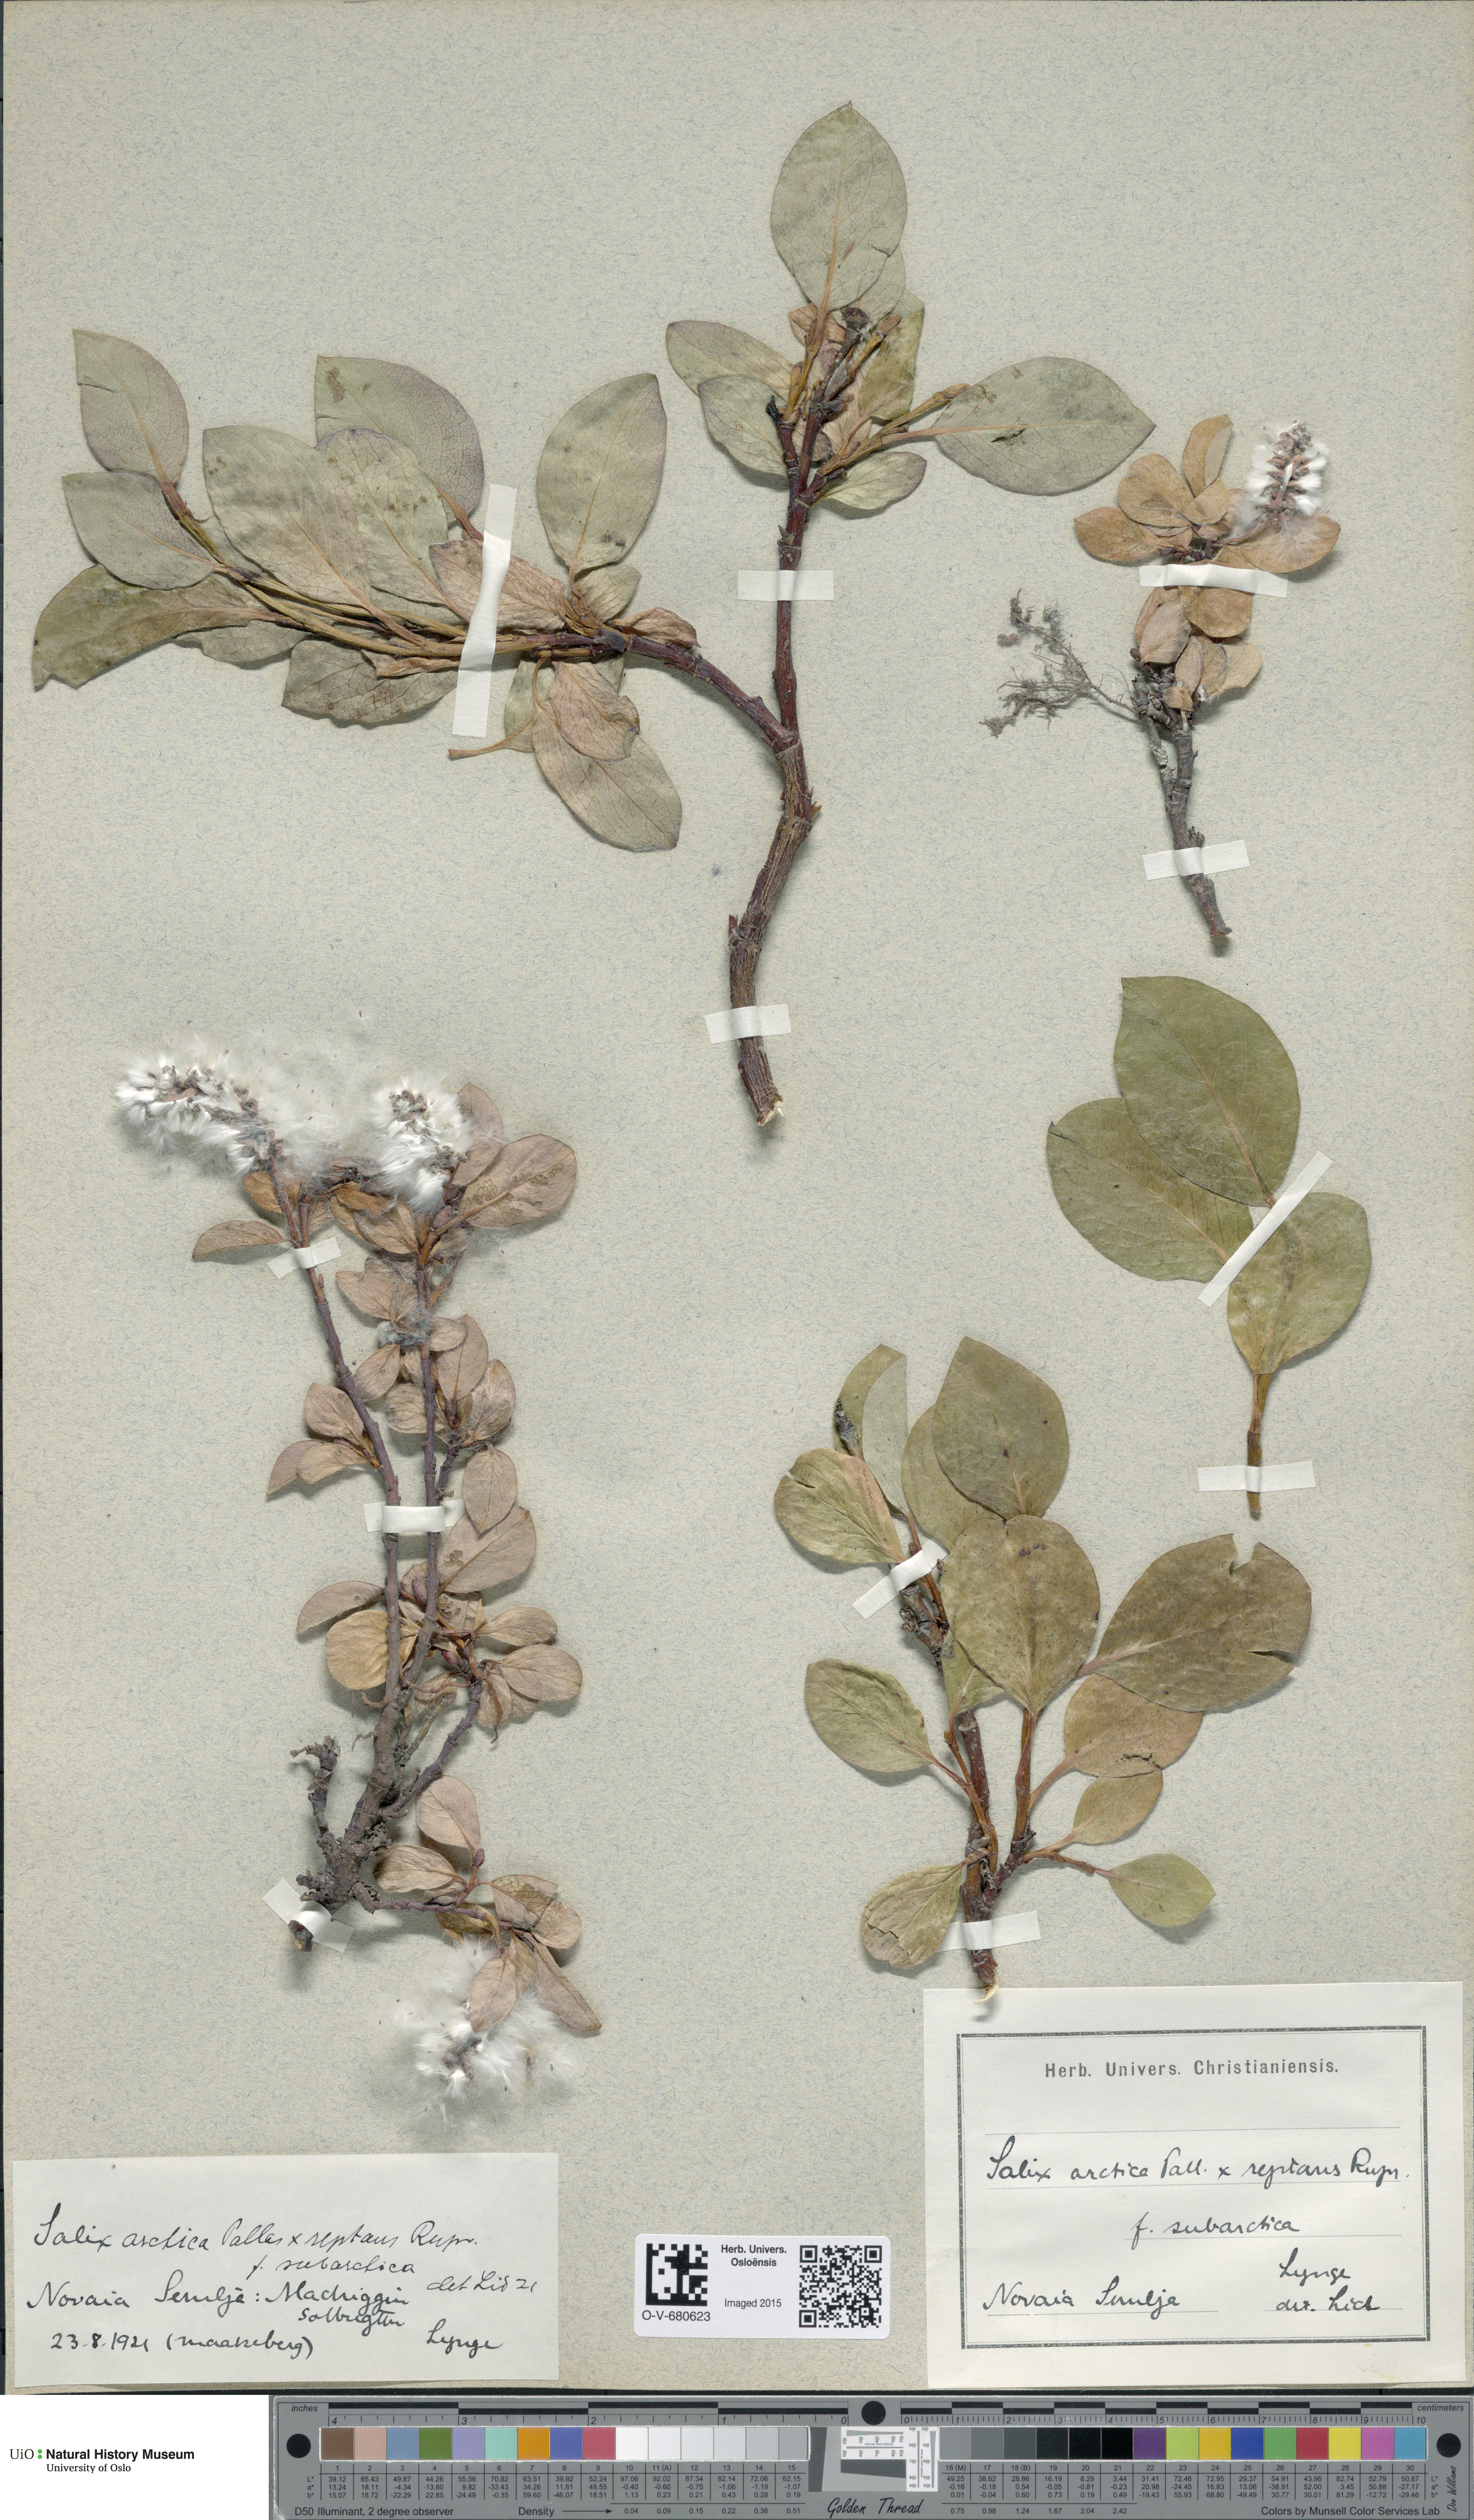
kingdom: Plantae
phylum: Tracheophyta
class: Magnoliopsida
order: Malpighiales
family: Salicaceae
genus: Salix
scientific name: Salix
